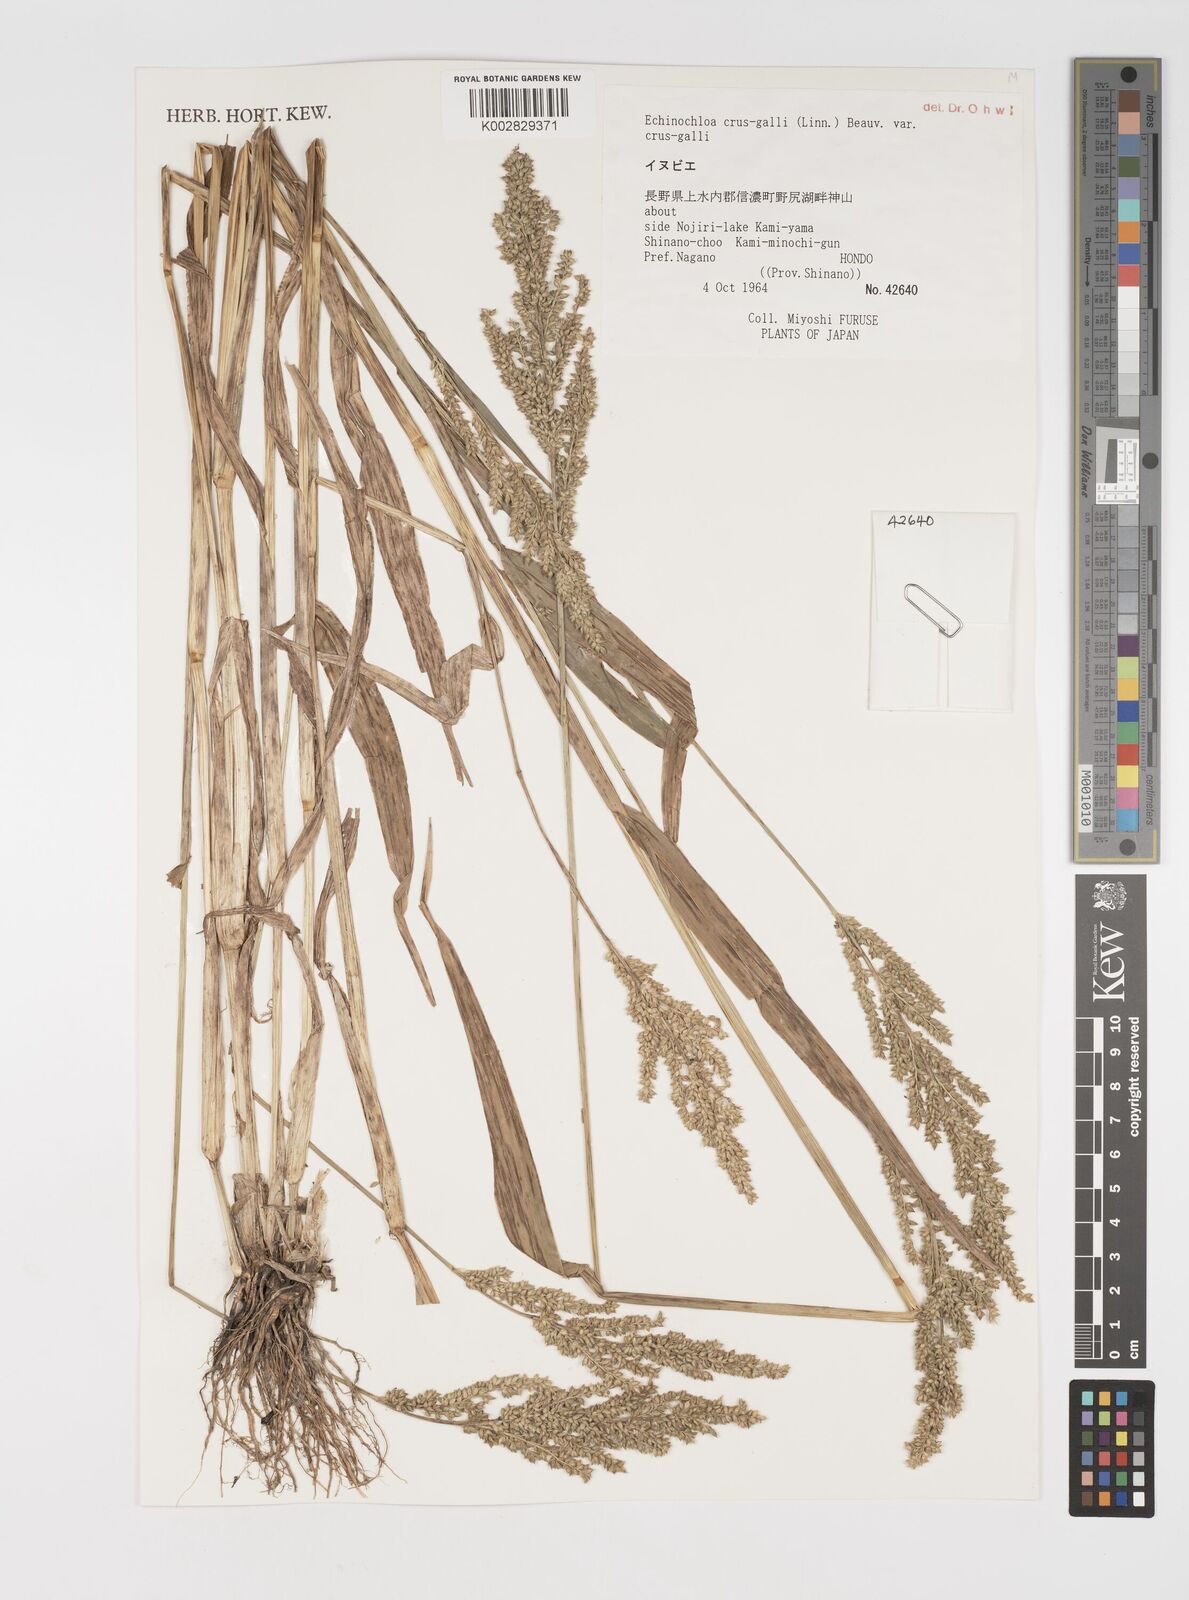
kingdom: Plantae
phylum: Tracheophyta
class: Liliopsida
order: Poales
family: Poaceae
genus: Echinochloa
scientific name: Echinochloa crus-galli
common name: Cockspur
